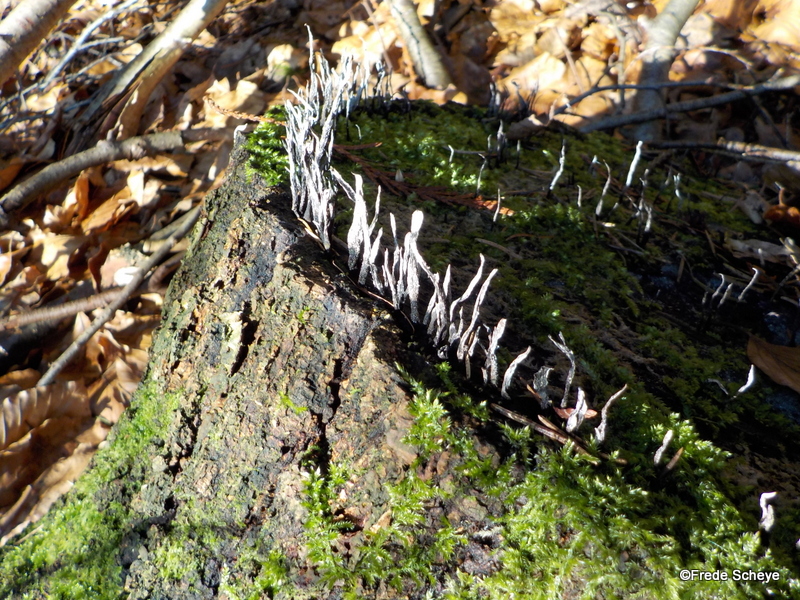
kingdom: Fungi
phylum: Ascomycota
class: Sordariomycetes
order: Xylariales
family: Xylariaceae
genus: Xylaria
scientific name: Xylaria hypoxylon
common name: grenet stødsvamp
